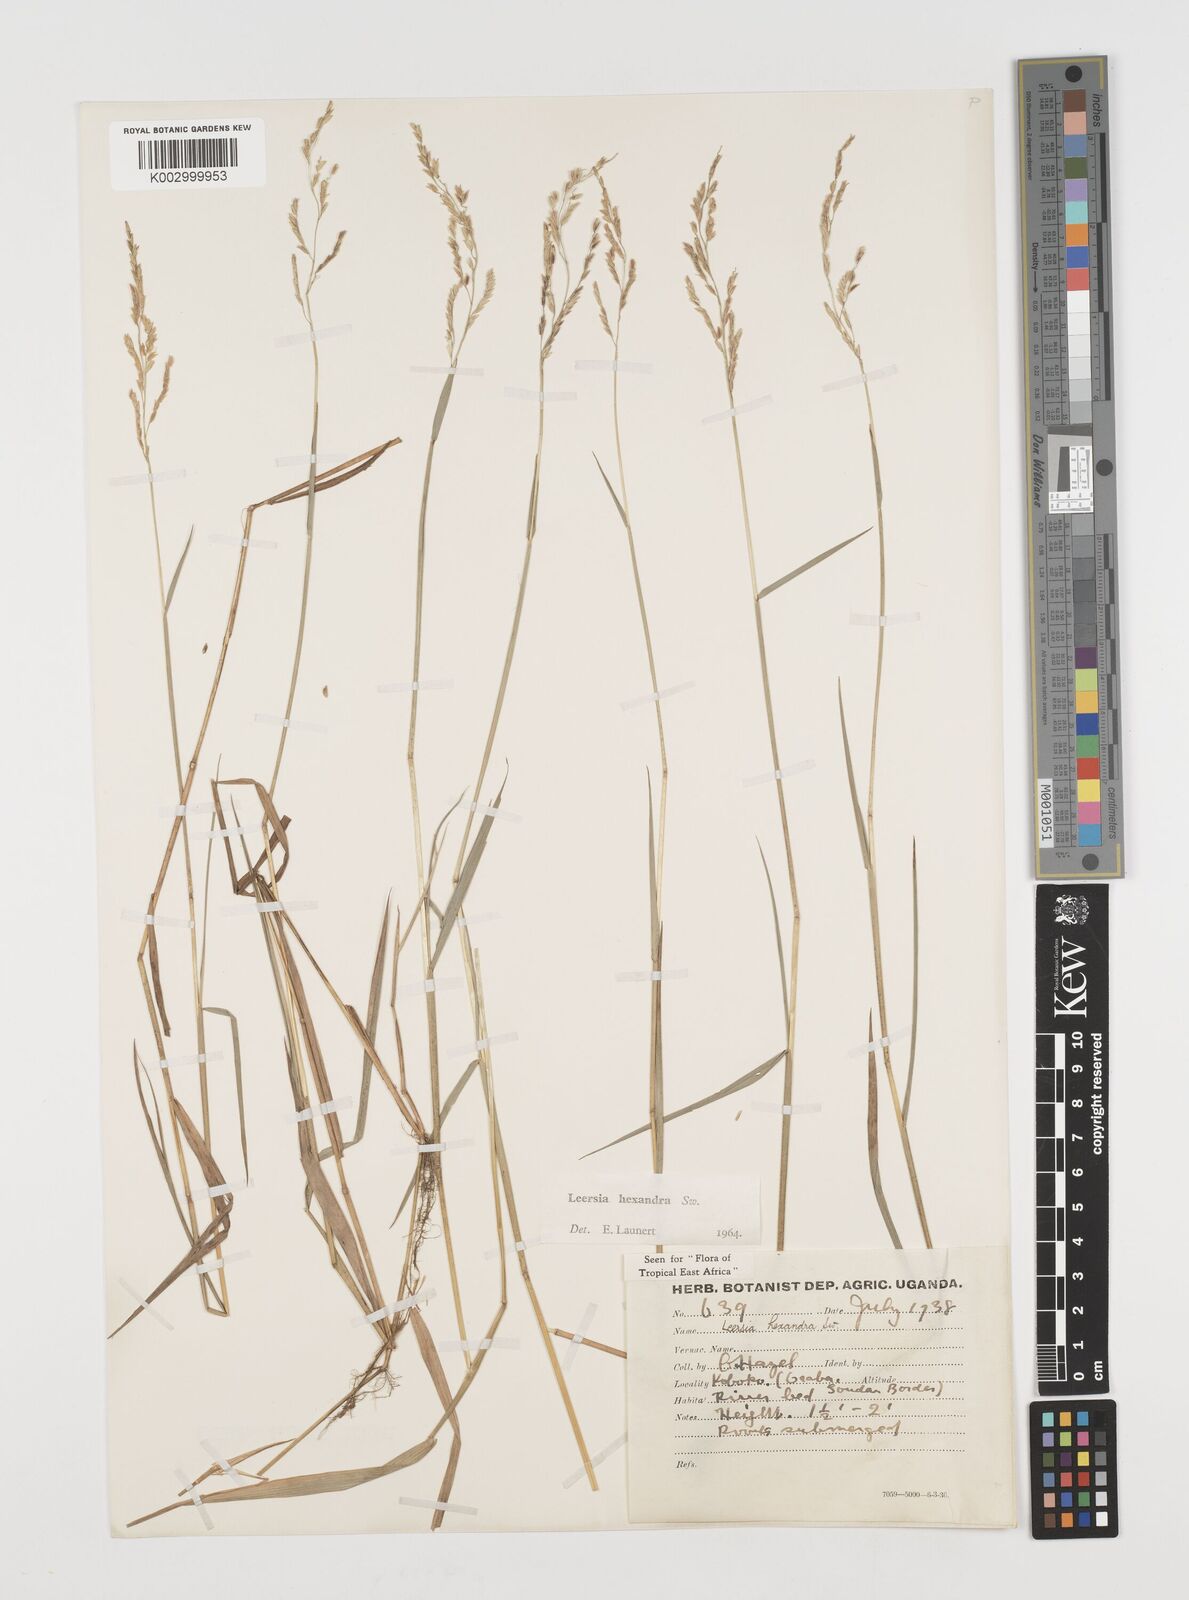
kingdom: Plantae
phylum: Tracheophyta
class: Liliopsida
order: Poales
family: Poaceae
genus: Leersia
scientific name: Leersia hexandra
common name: Southern cut grass
